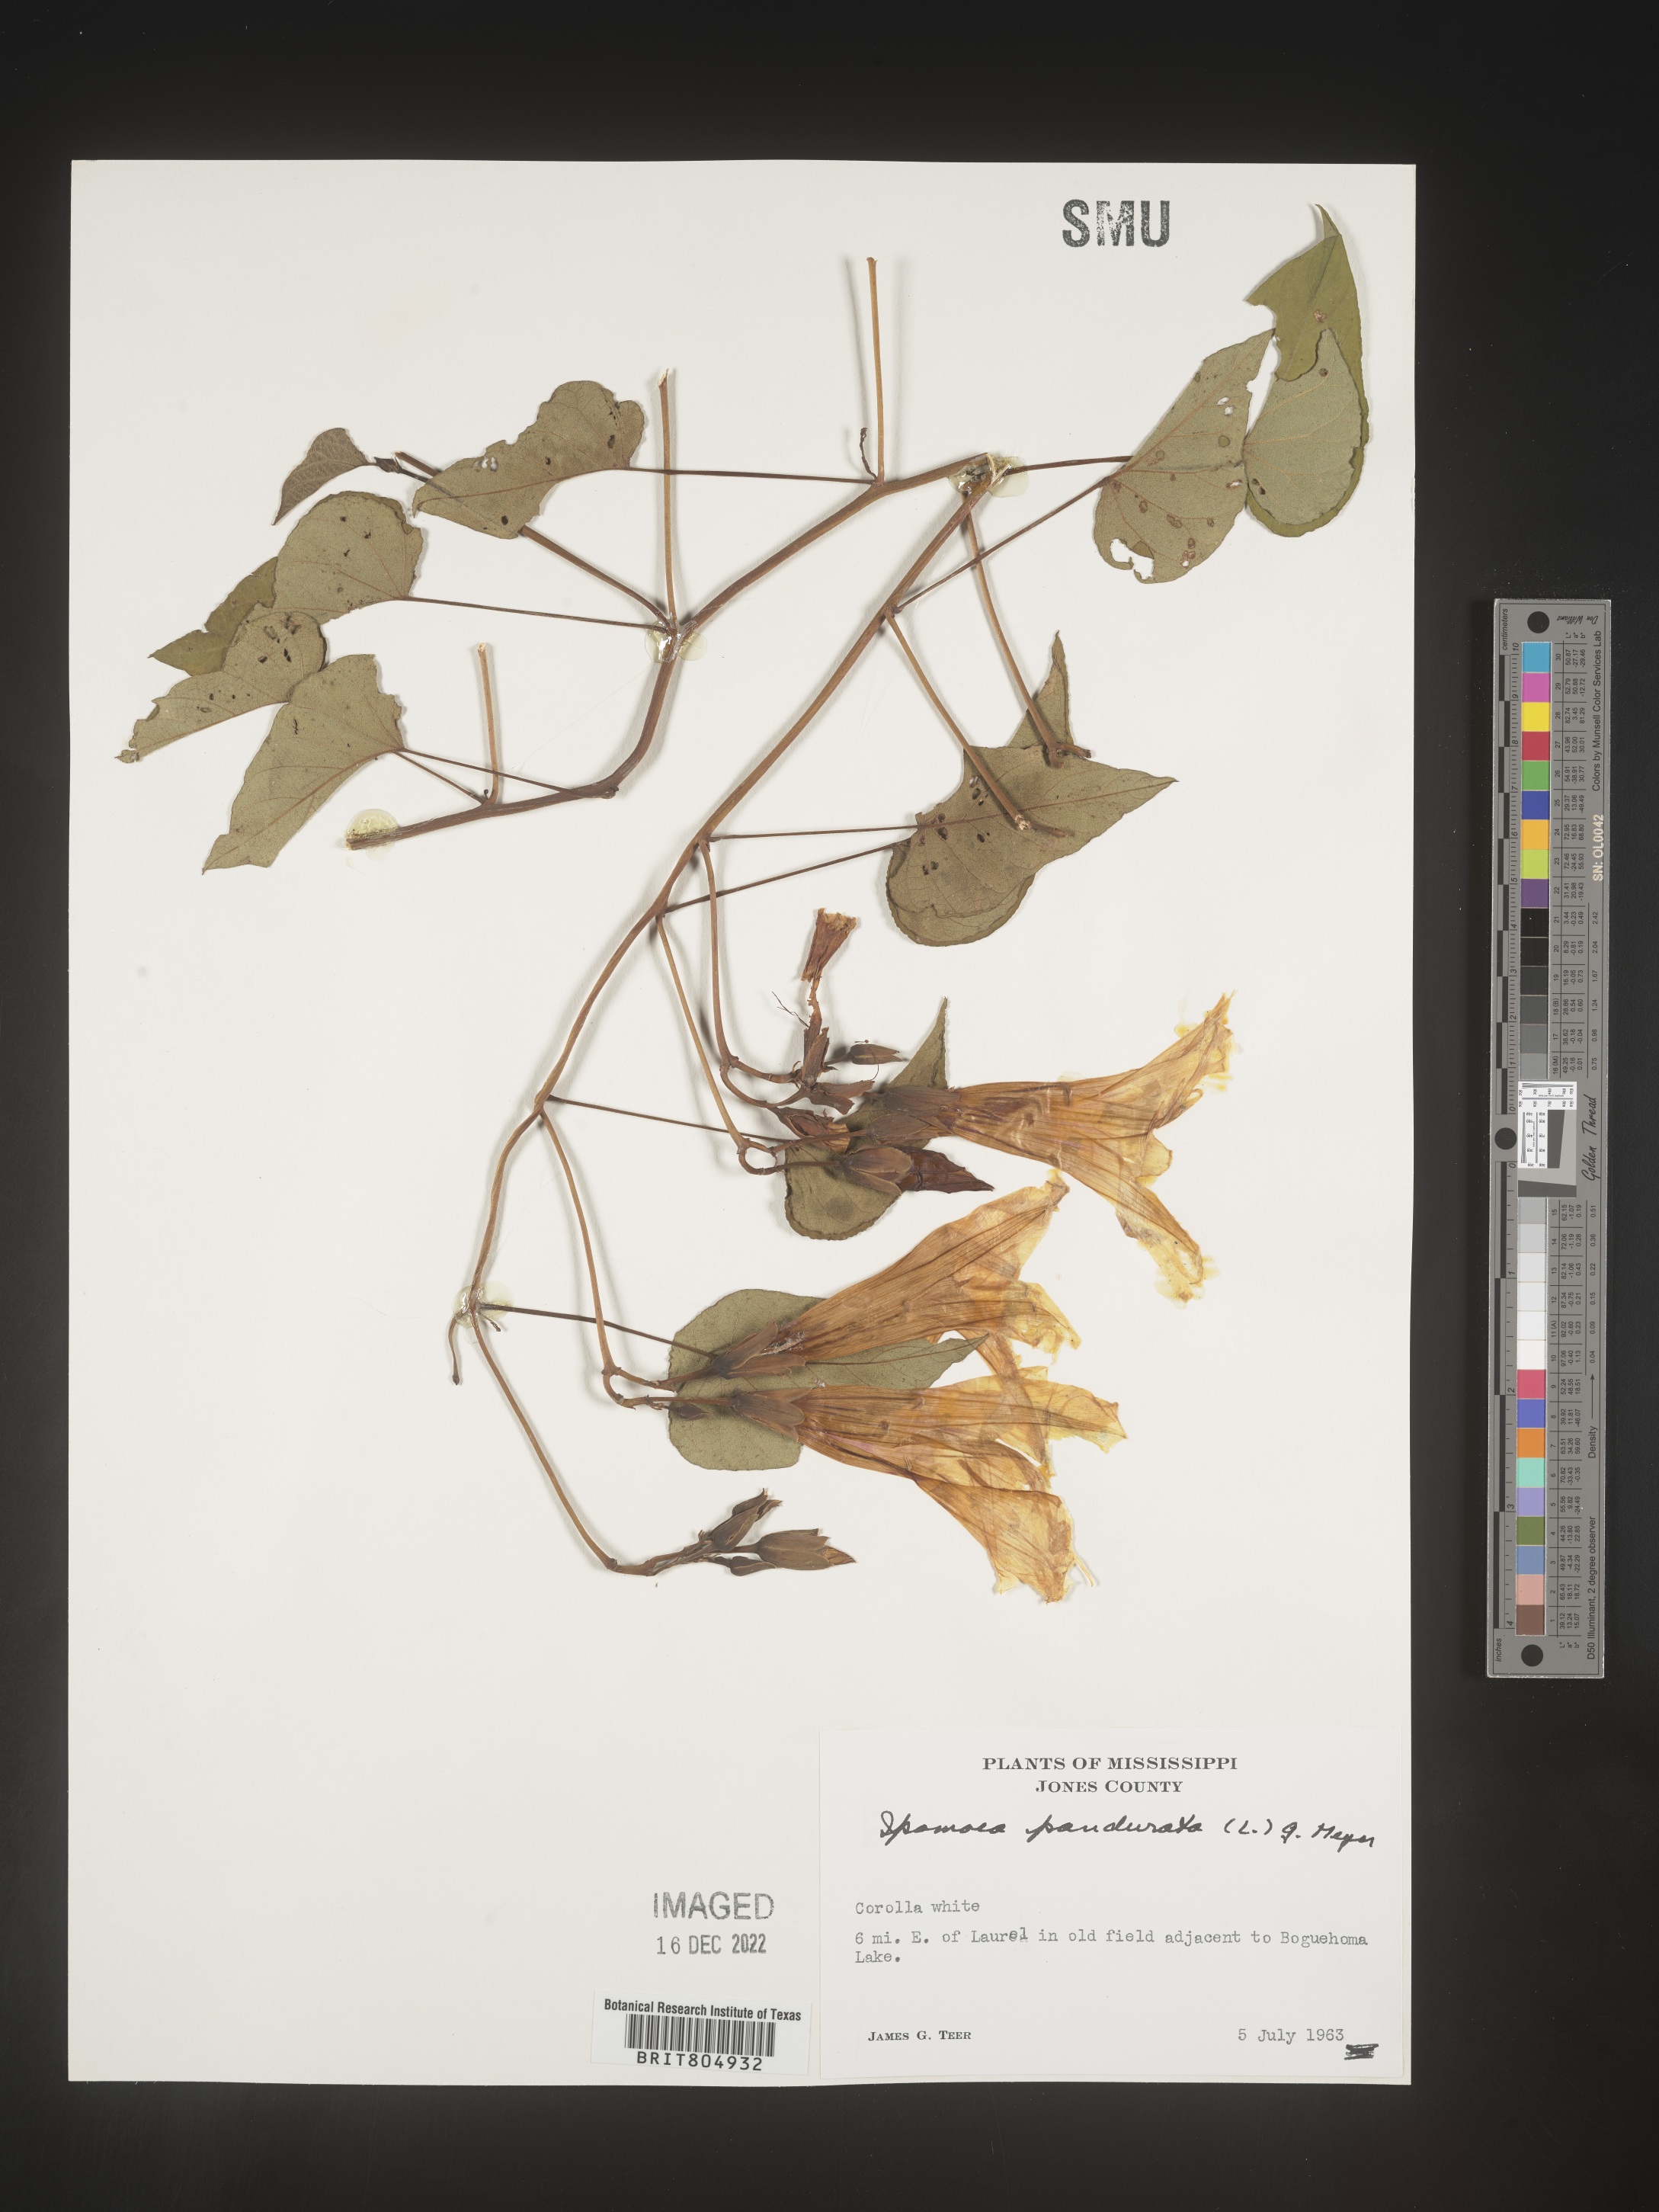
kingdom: Plantae
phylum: Tracheophyta
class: Magnoliopsida
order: Solanales
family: Convolvulaceae
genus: Ipomoea
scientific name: Ipomoea pandurata
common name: Man-of-the-earth
